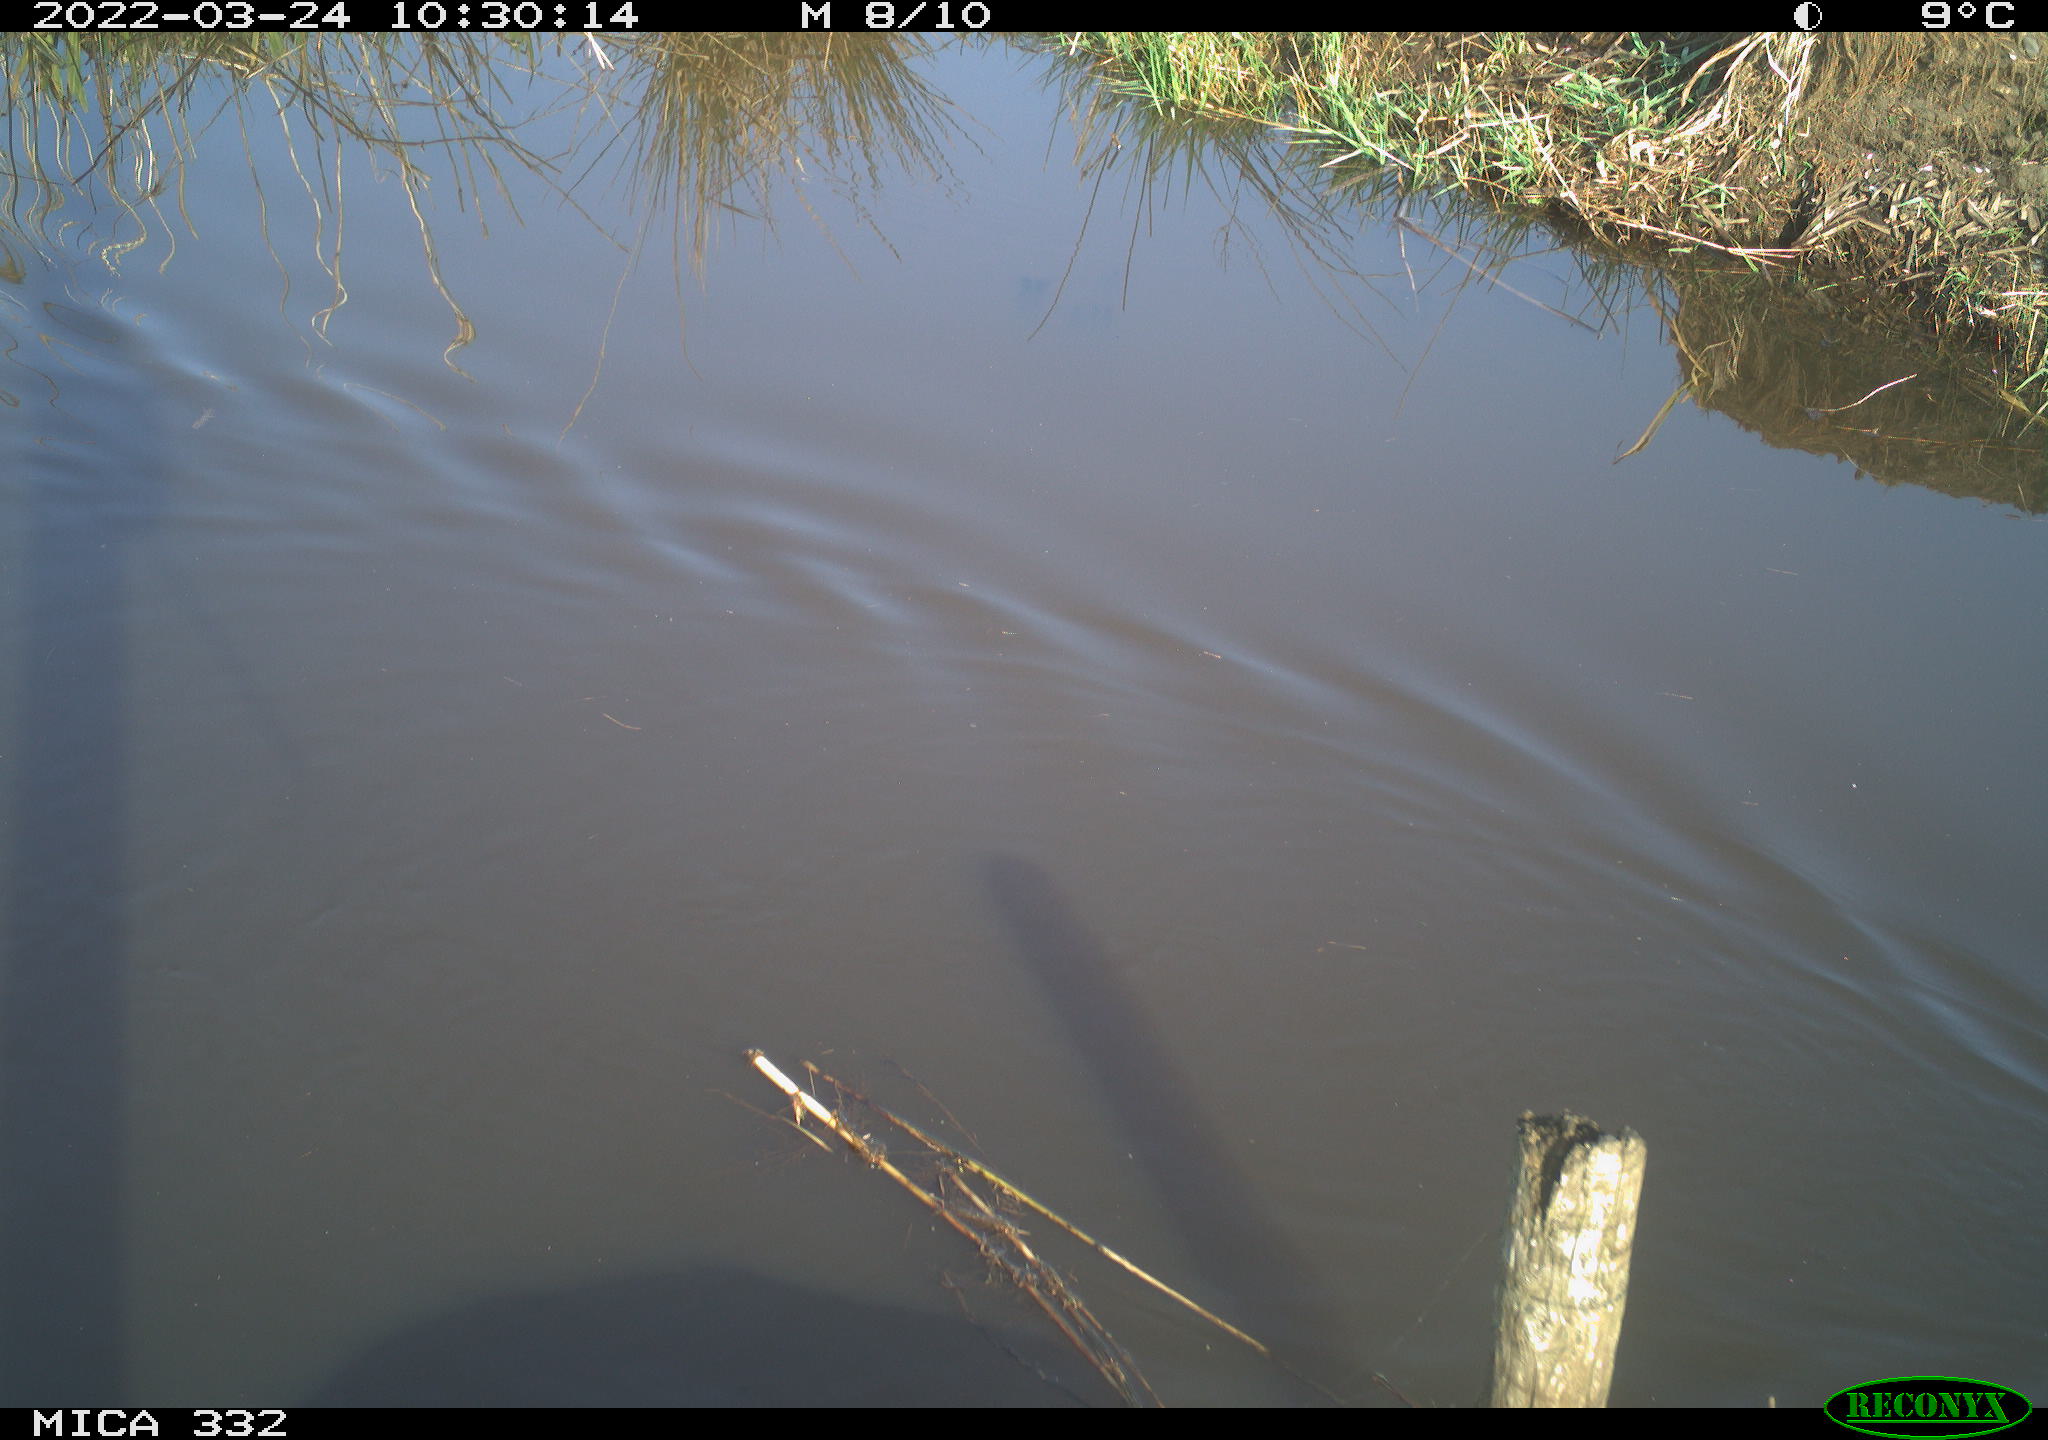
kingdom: Animalia
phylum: Chordata
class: Aves
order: Gruiformes
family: Rallidae
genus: Fulica
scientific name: Fulica atra
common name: Eurasian coot
